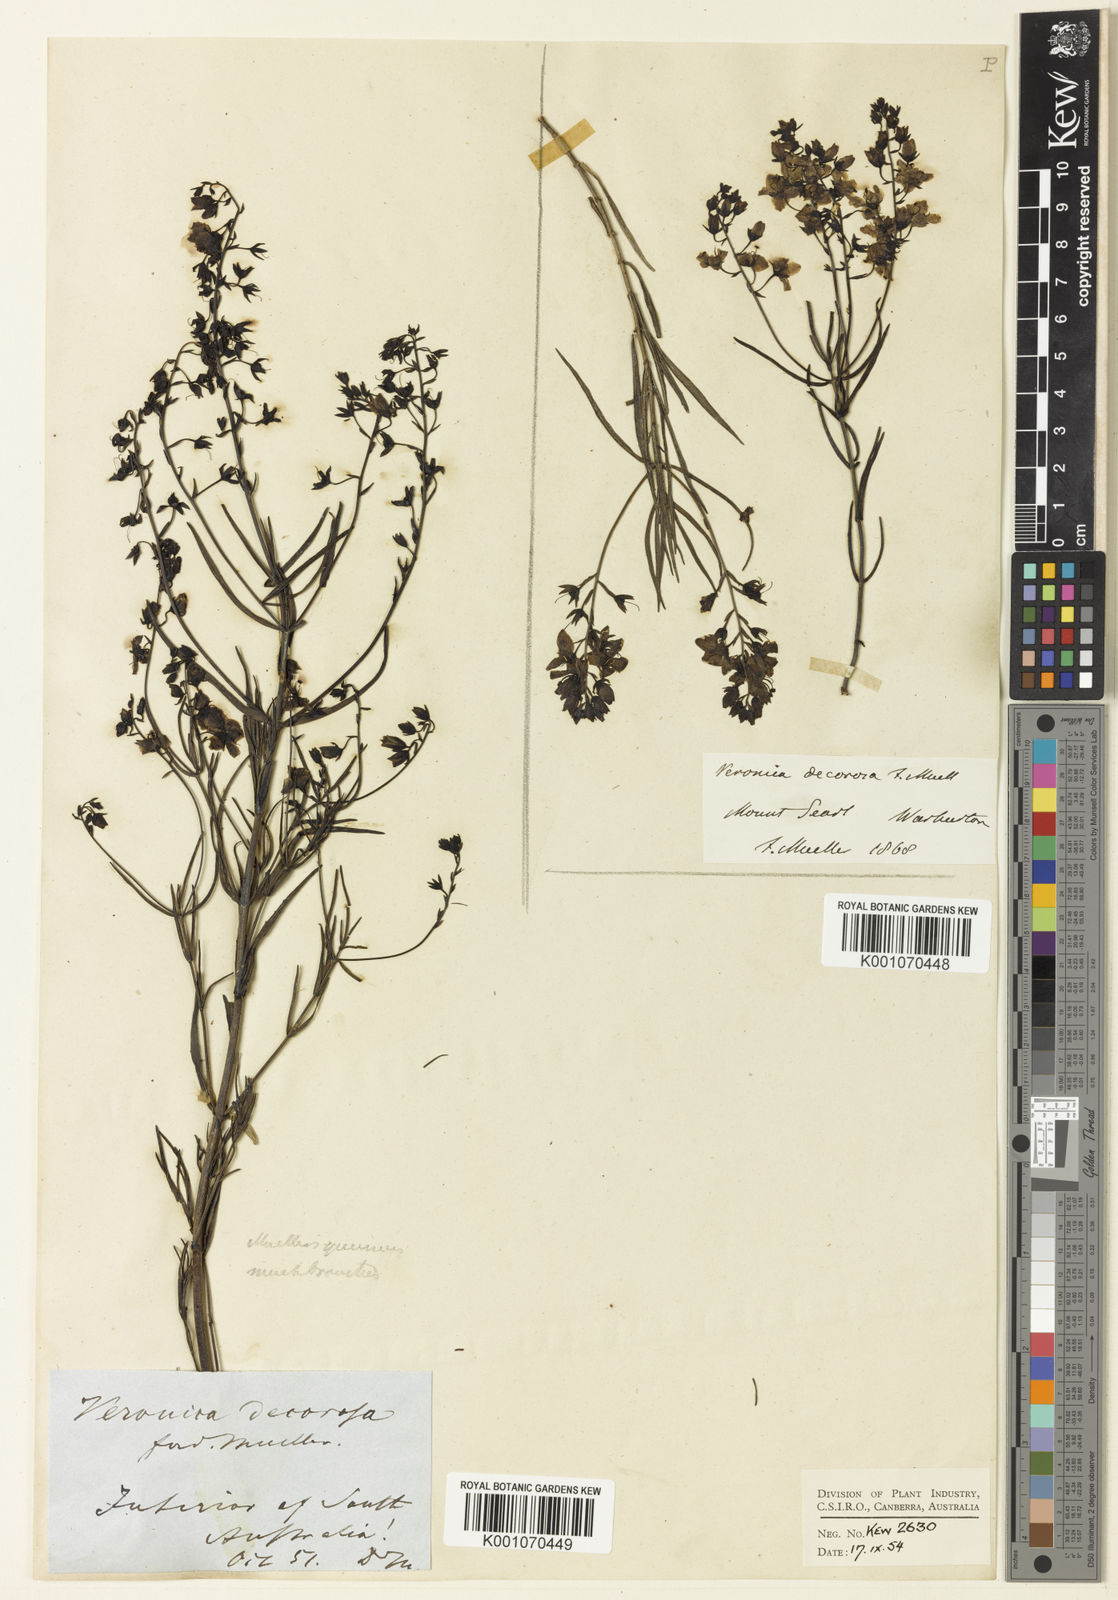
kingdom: Plantae
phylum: Tracheophyta
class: Magnoliopsida
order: Lamiales
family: Plantaginaceae
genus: Veronica
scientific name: Veronica
